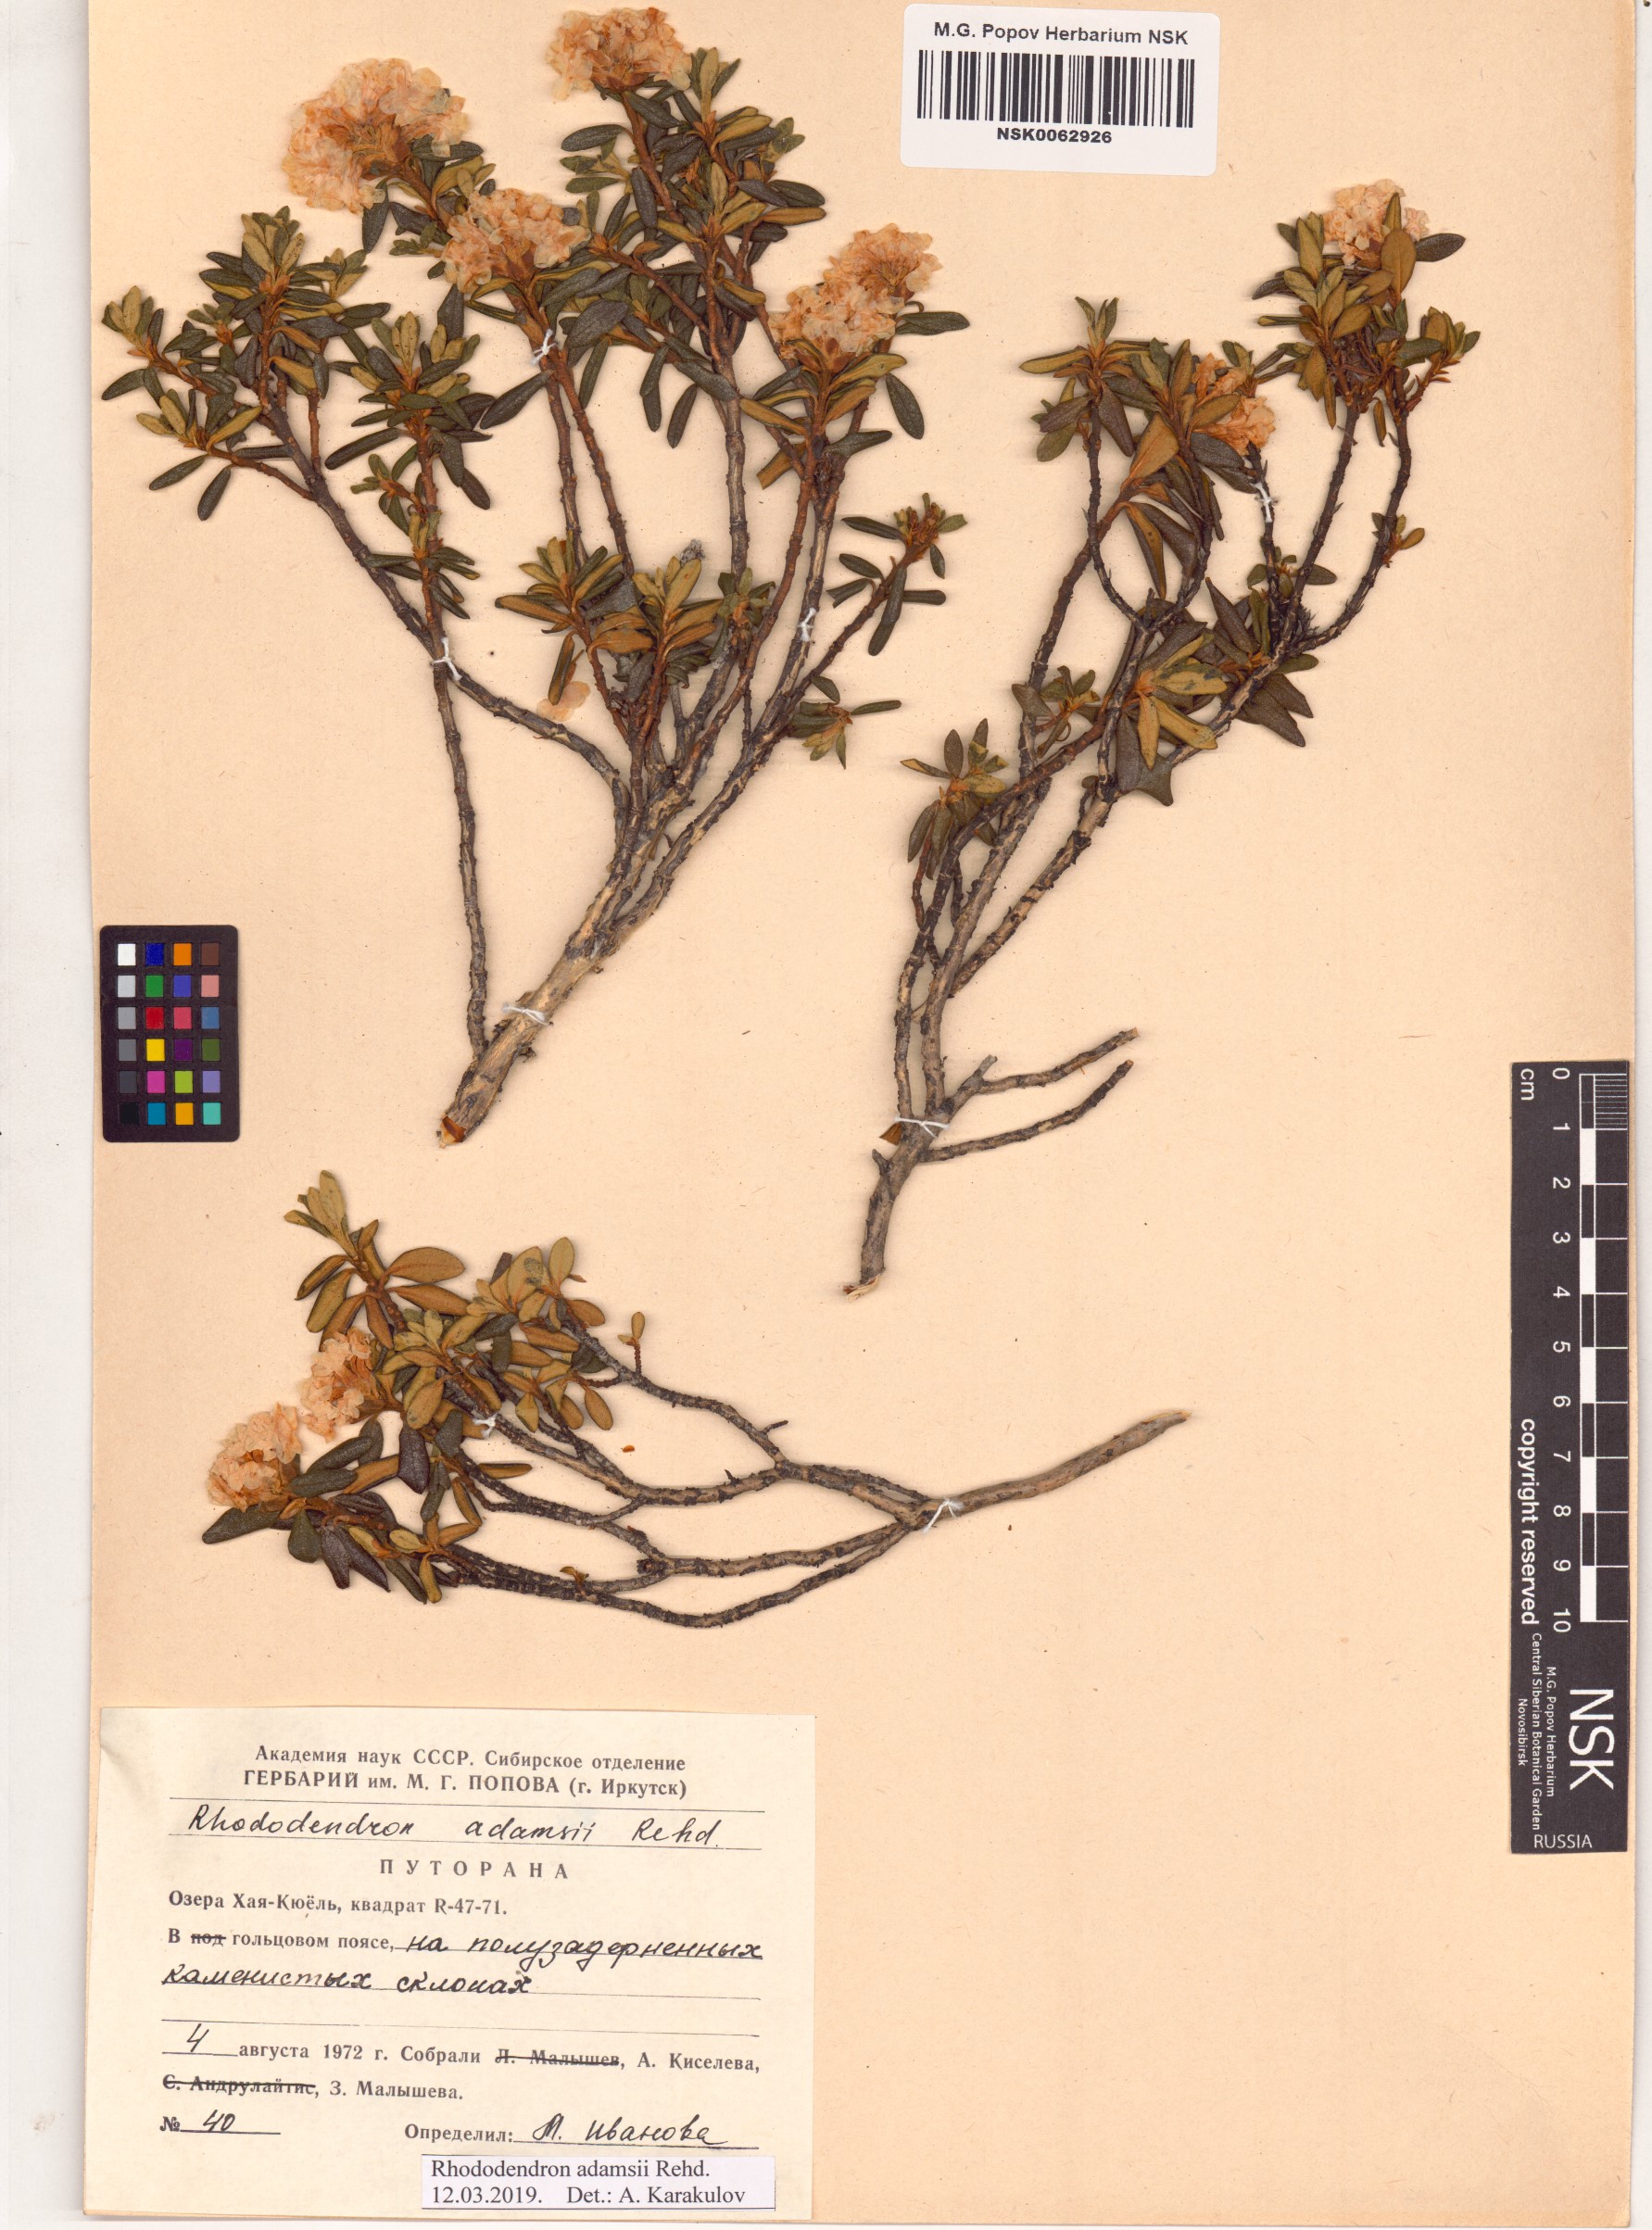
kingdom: Plantae
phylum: Tracheophyta
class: Magnoliopsida
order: Ericales
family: Ericaceae
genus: Rhododendron
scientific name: Rhododendron adamsii
